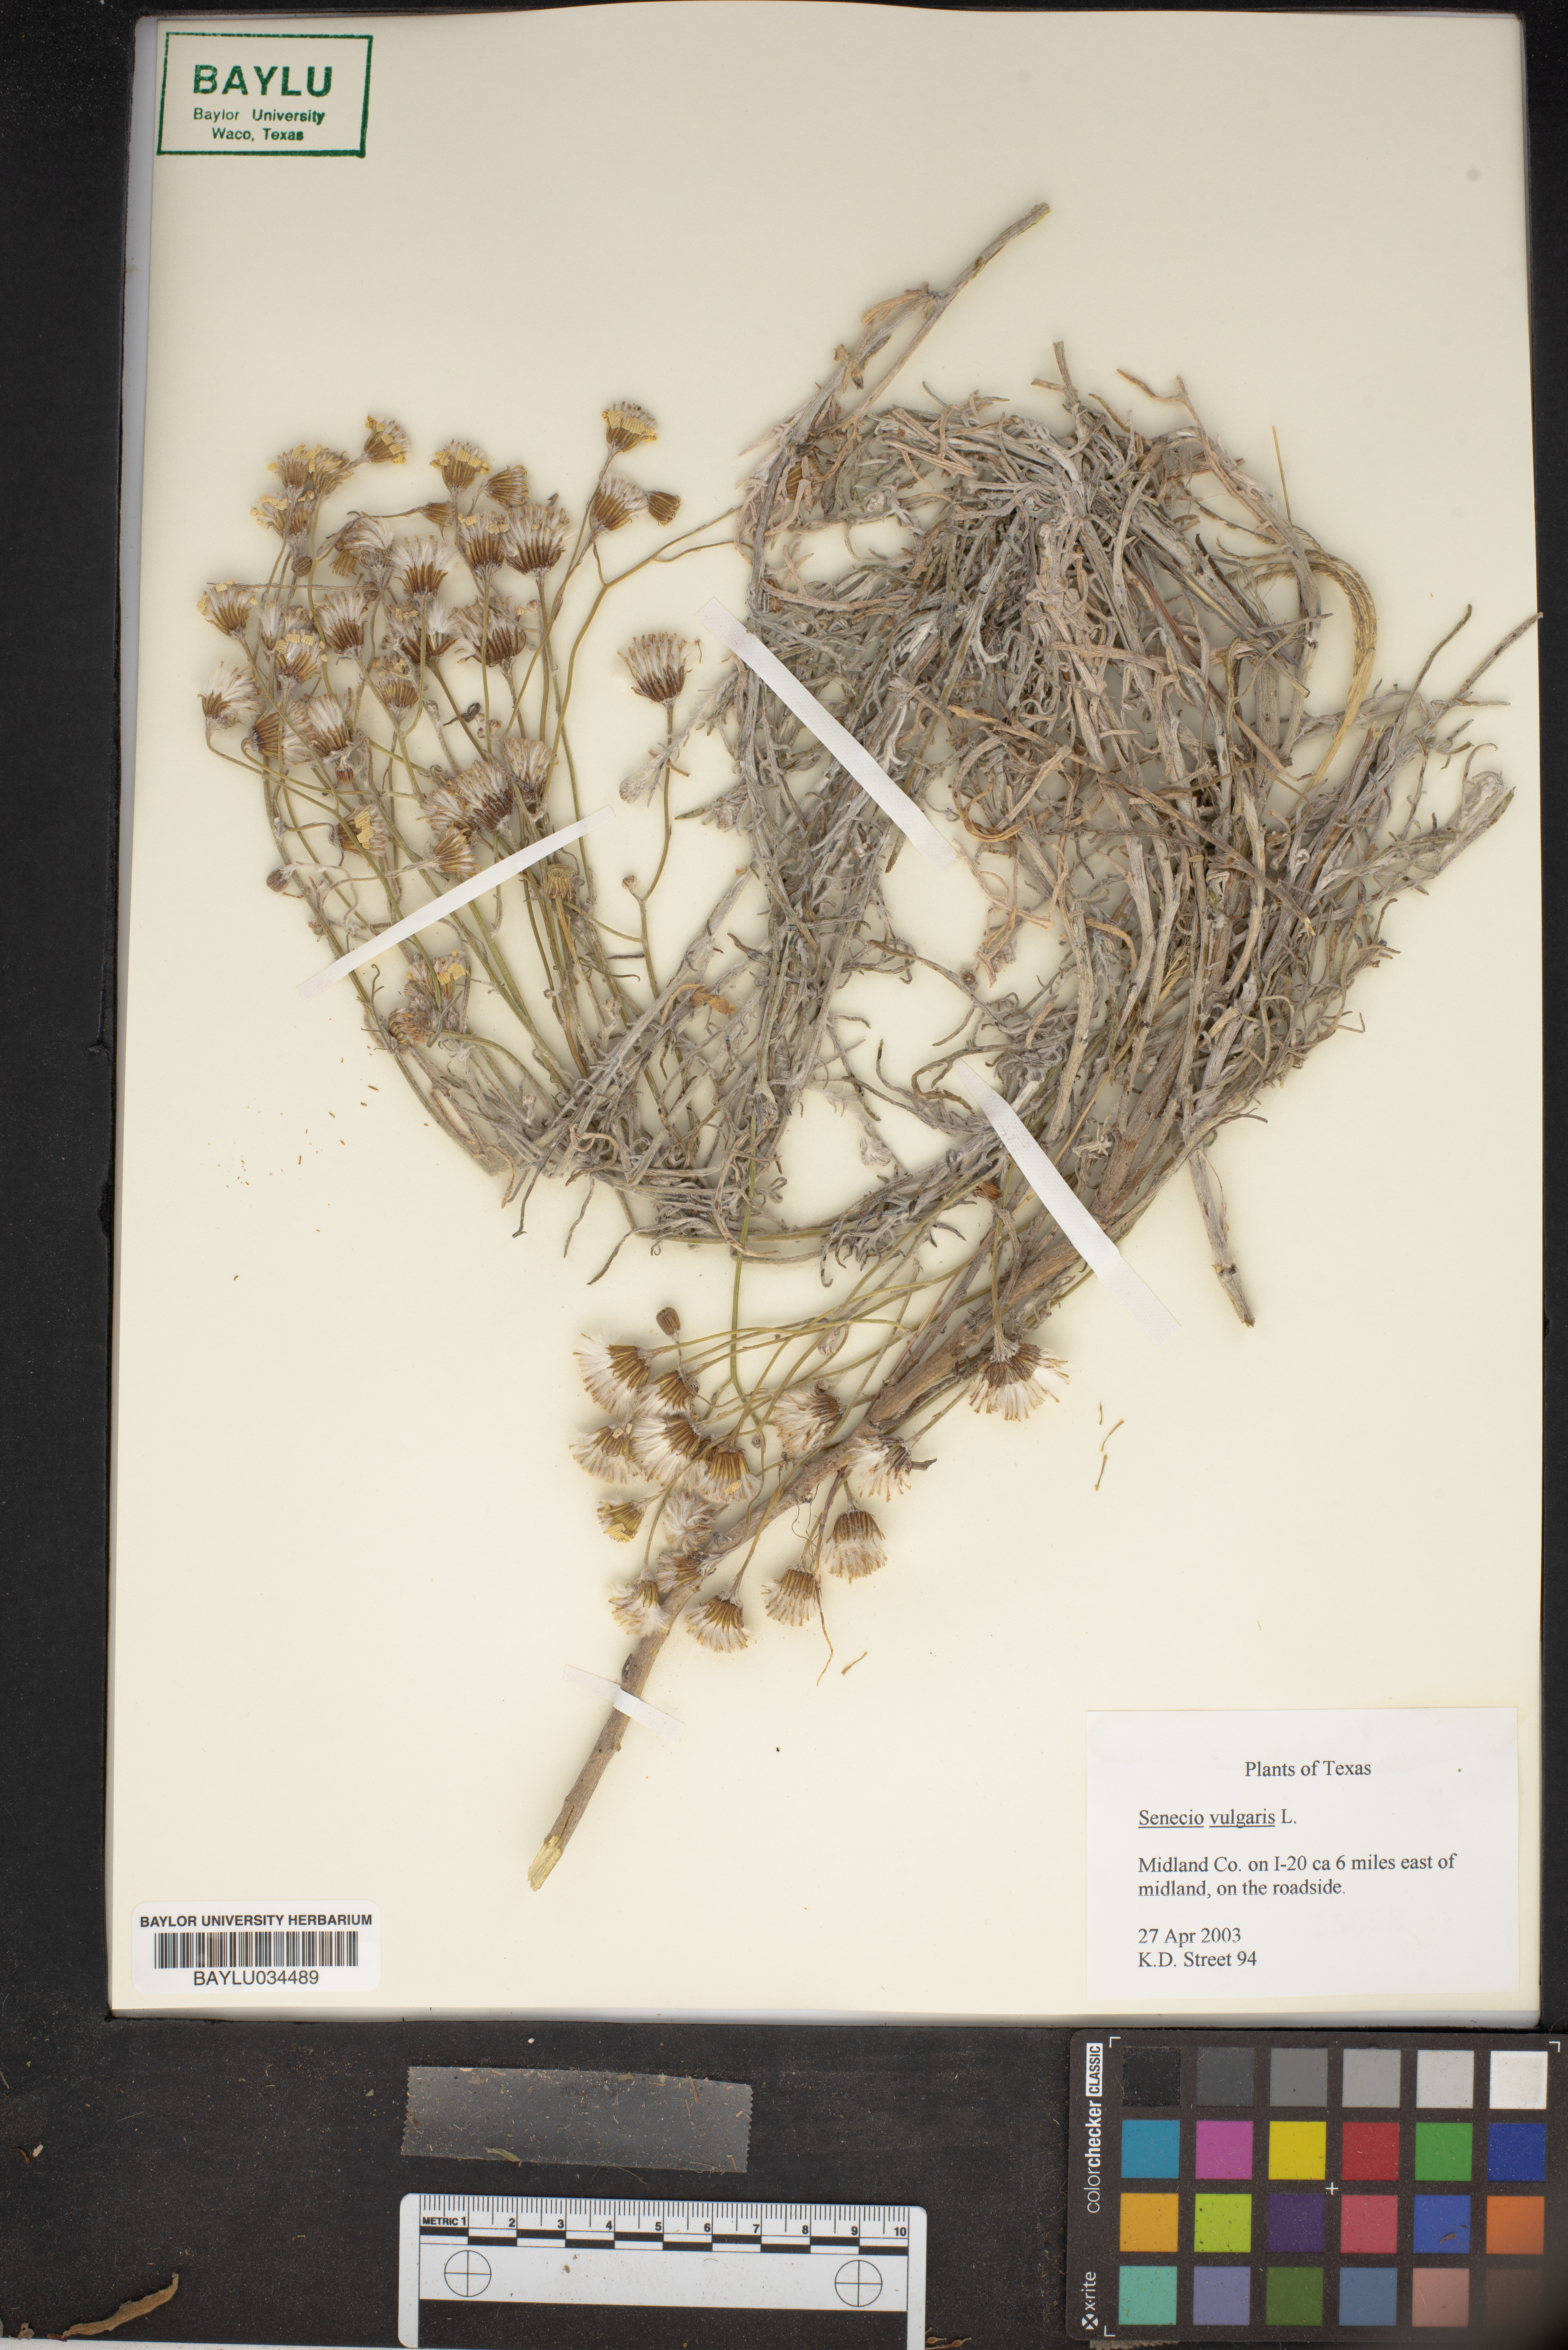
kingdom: Plantae
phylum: Tracheophyta
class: Magnoliopsida
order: Asterales
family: Asteraceae
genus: Senecio
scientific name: Senecio vulgaris
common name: Old-man-in-the-spring
